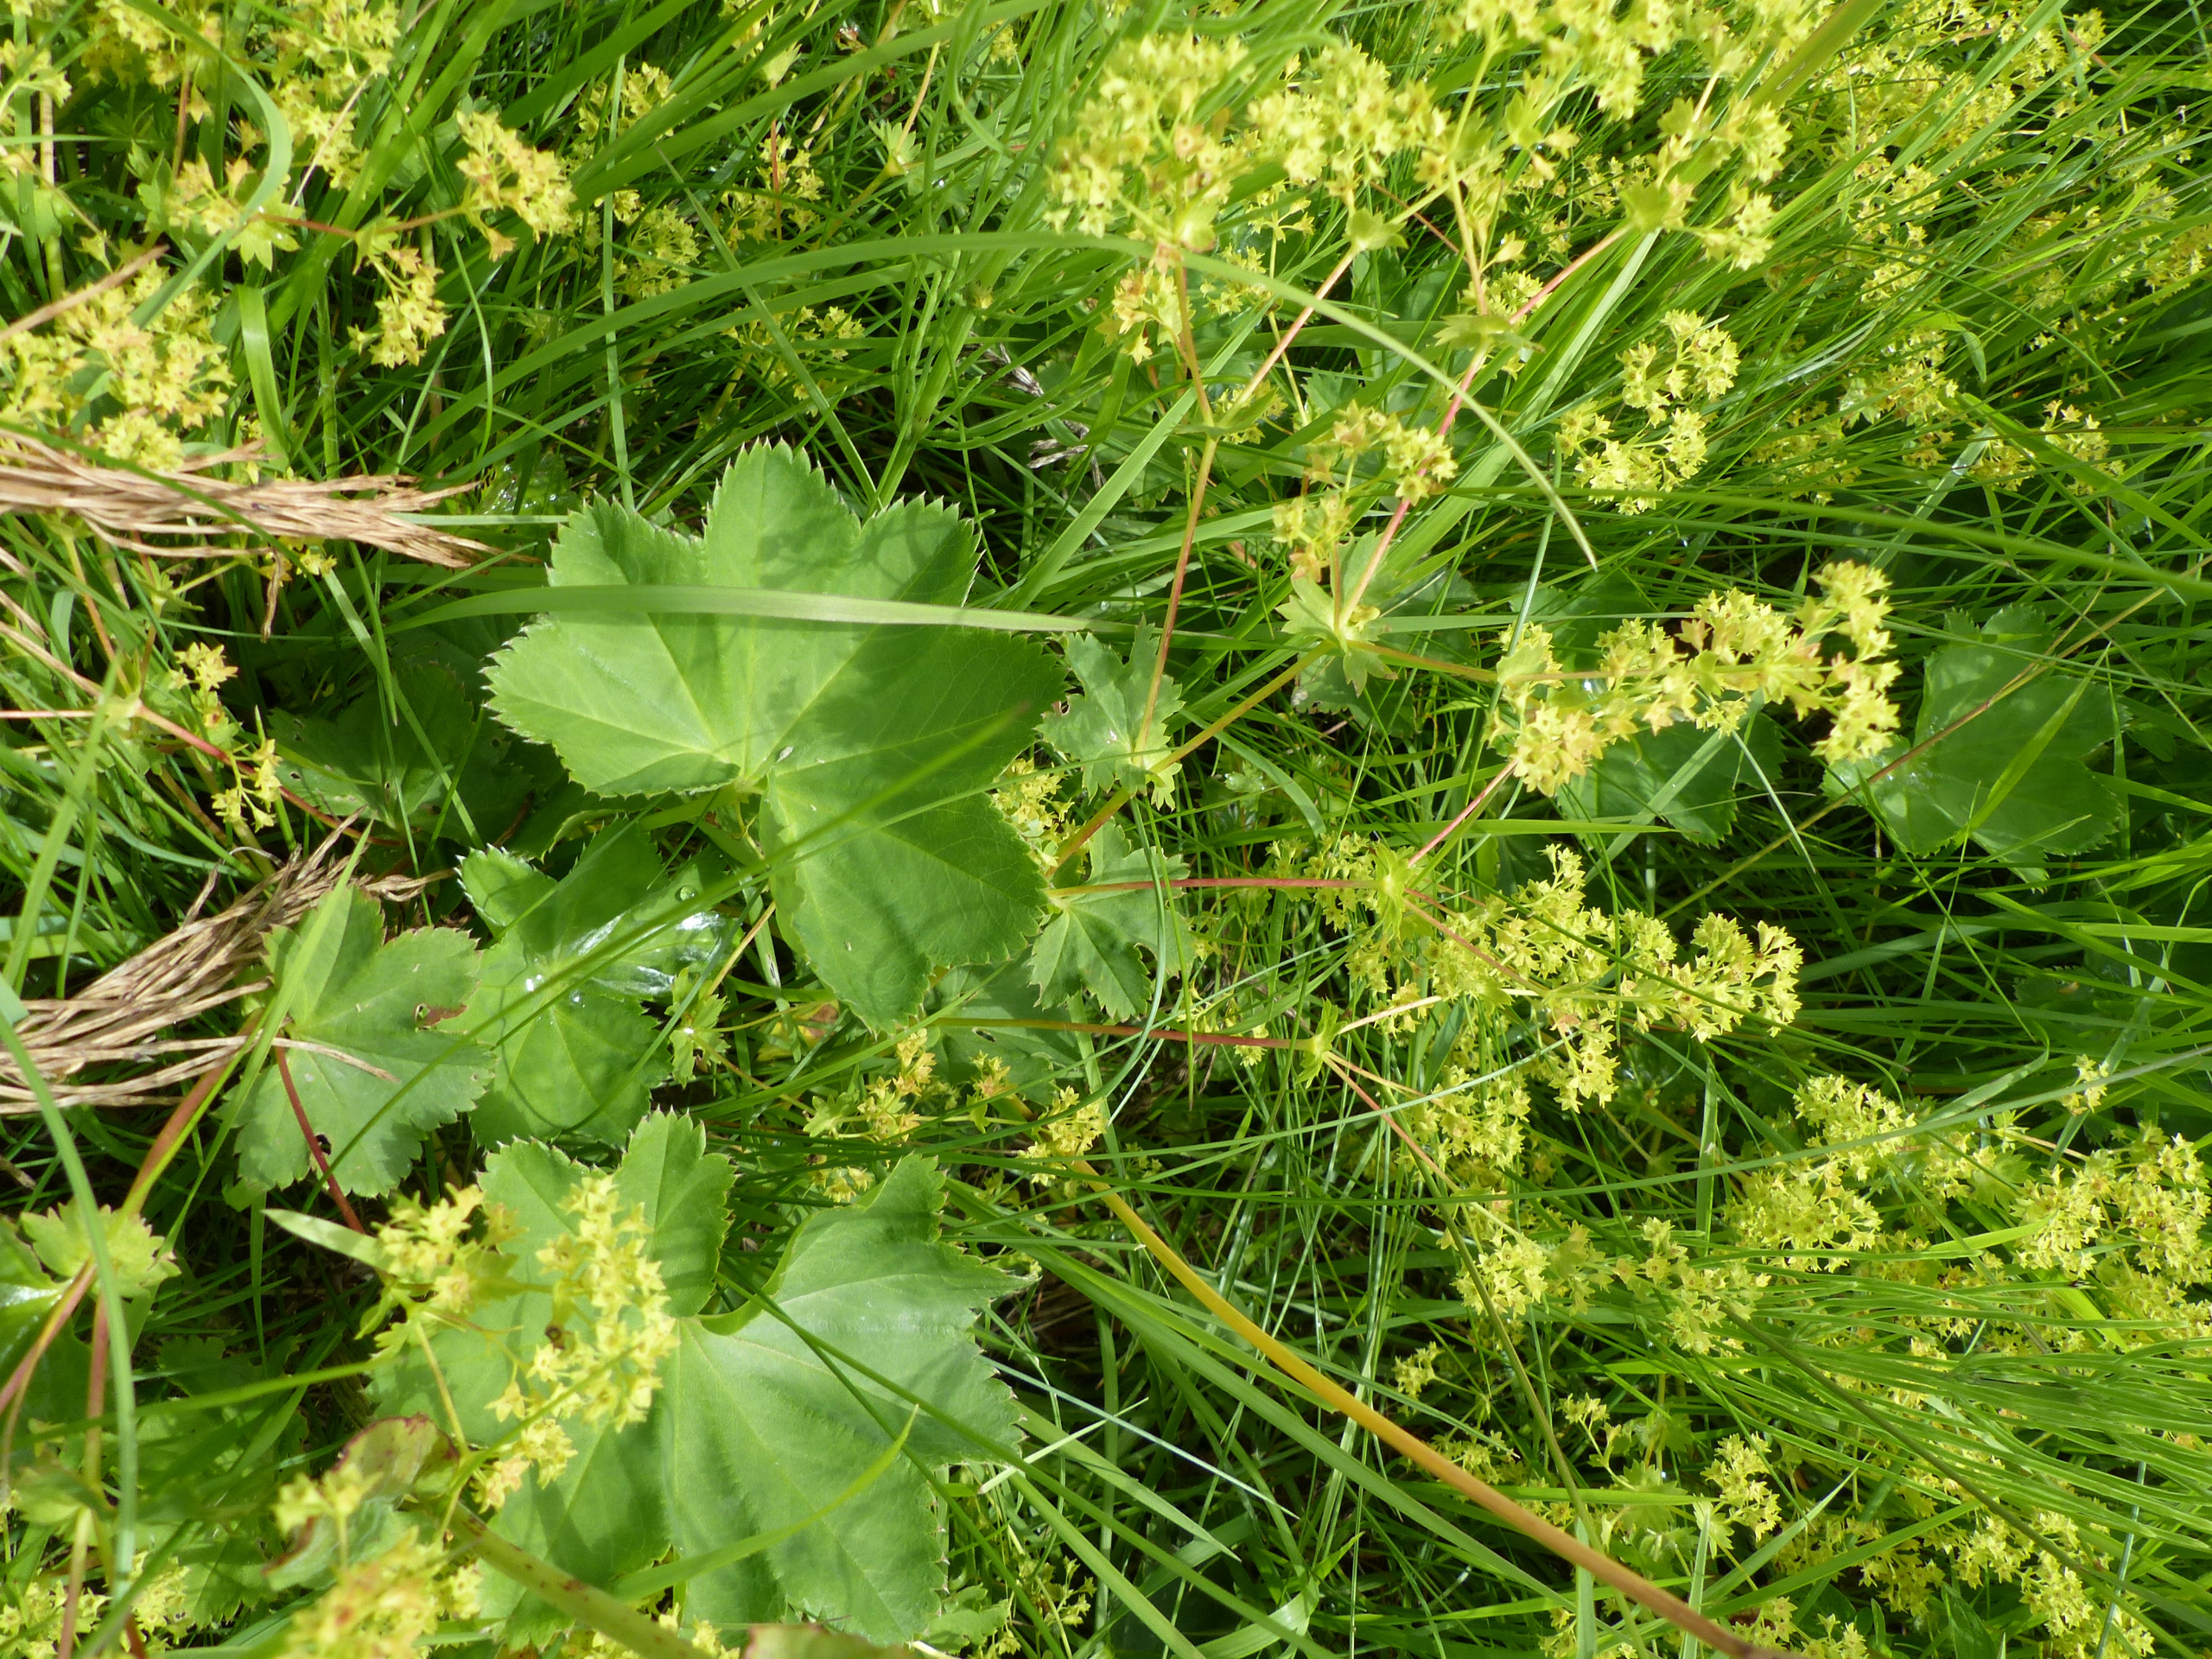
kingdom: Plantae
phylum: Tracheophyta
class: Magnoliopsida
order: Rosales
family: Rosaceae
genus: Alchemilla
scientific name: Alchemilla glabra
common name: Glat løvefod
